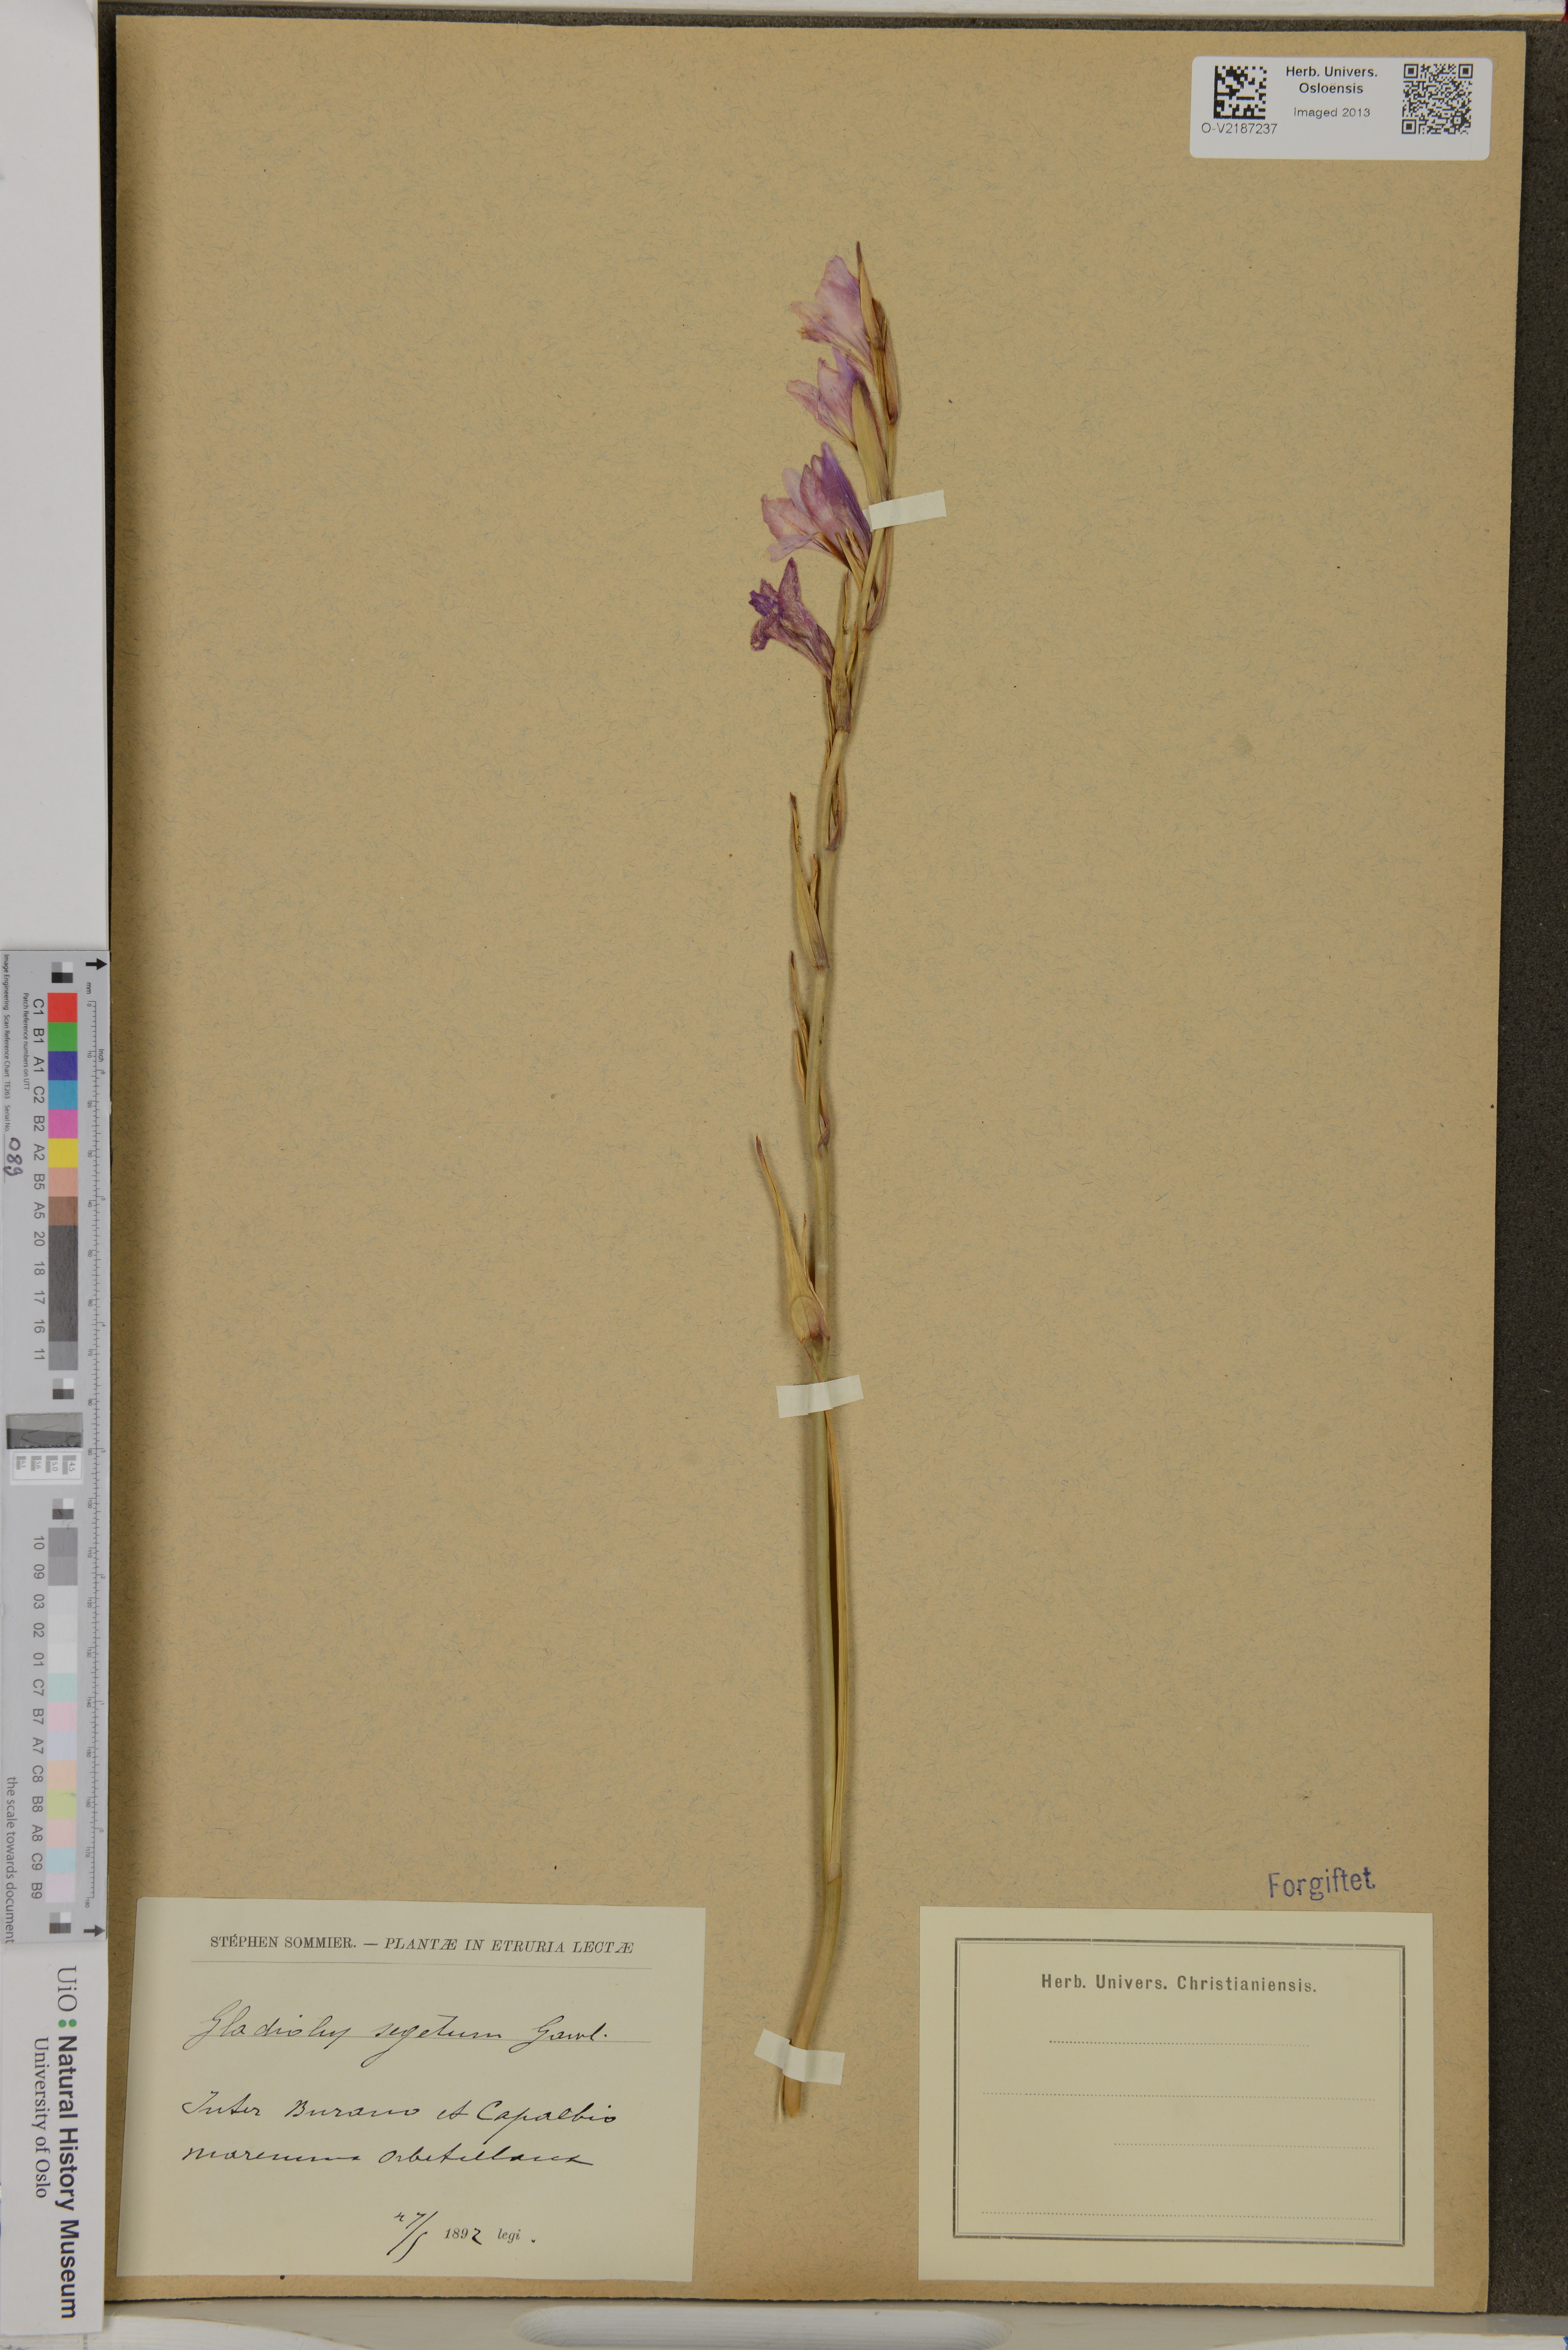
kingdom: Plantae
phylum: Tracheophyta
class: Liliopsida
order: Asparagales
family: Iridaceae
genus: Gladiolus
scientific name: Gladiolus italicus
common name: Field gladiolus
